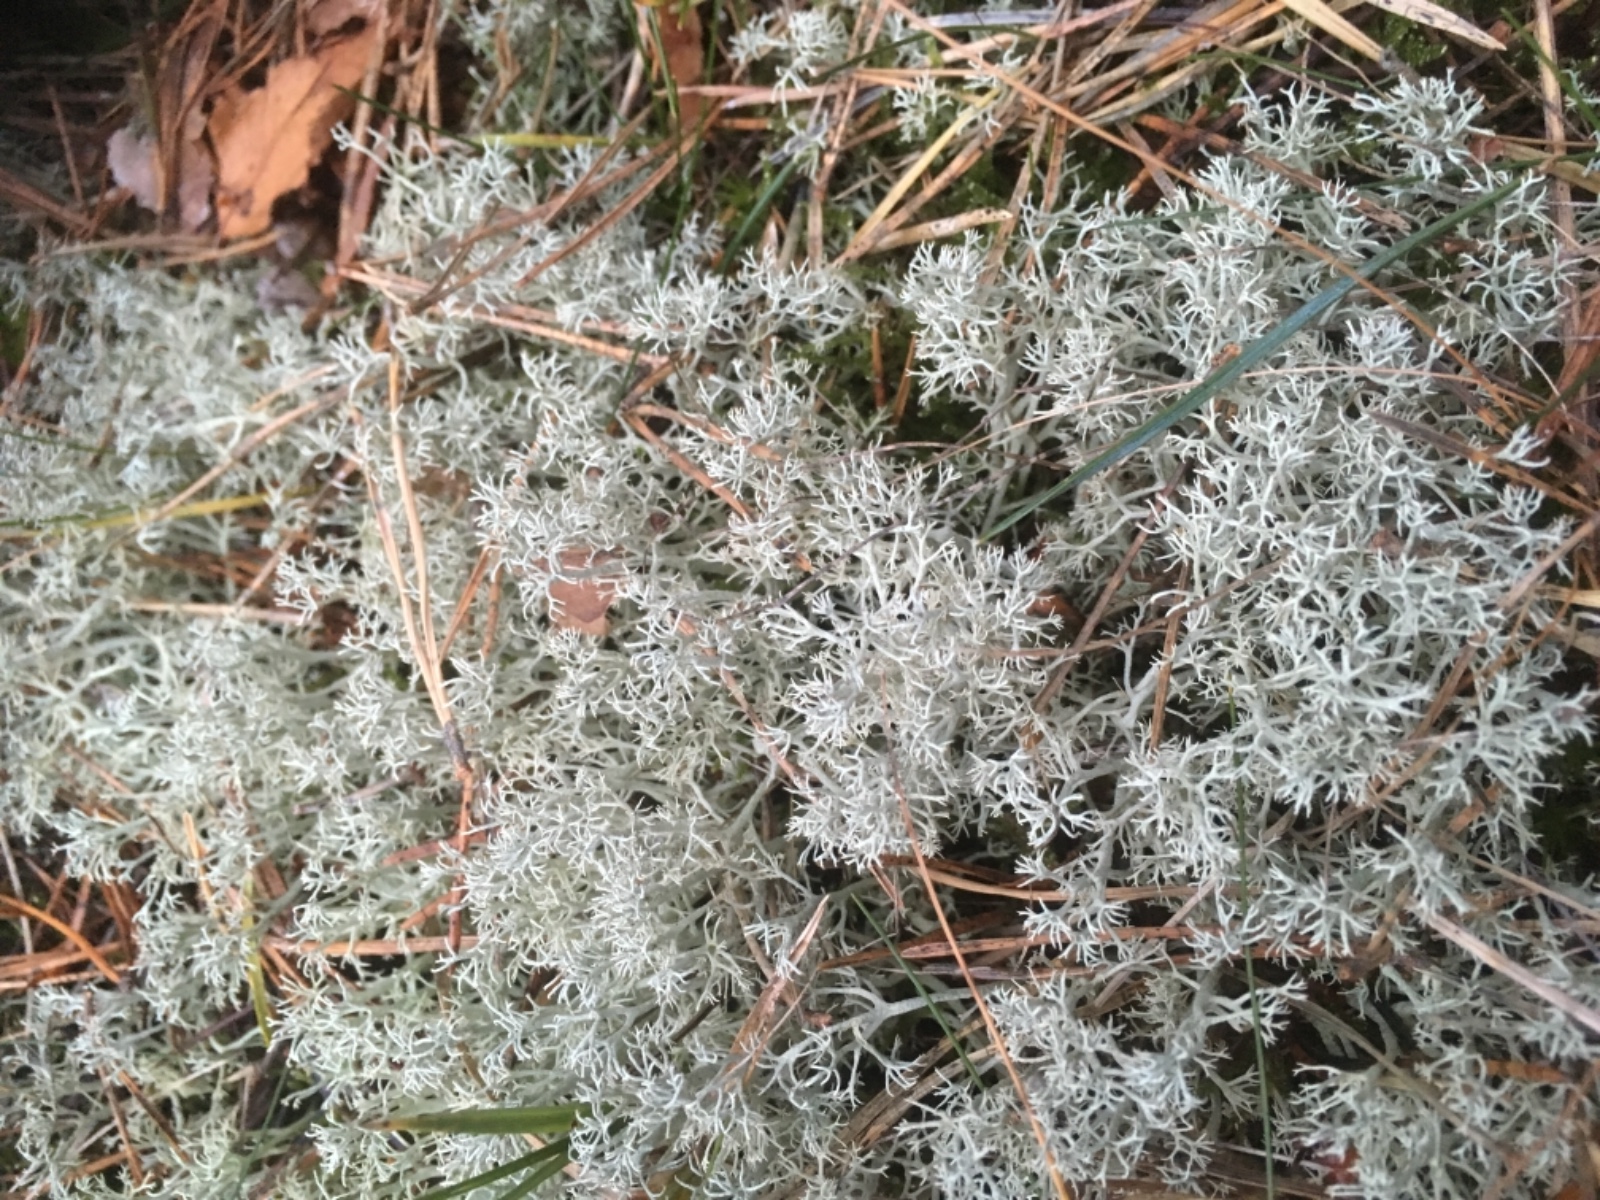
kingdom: Fungi
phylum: Ascomycota
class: Lecanoromycetes
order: Lecanorales
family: Cladoniaceae
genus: Cladonia
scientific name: Cladonia portentosa
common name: hede-rensdyrlav
